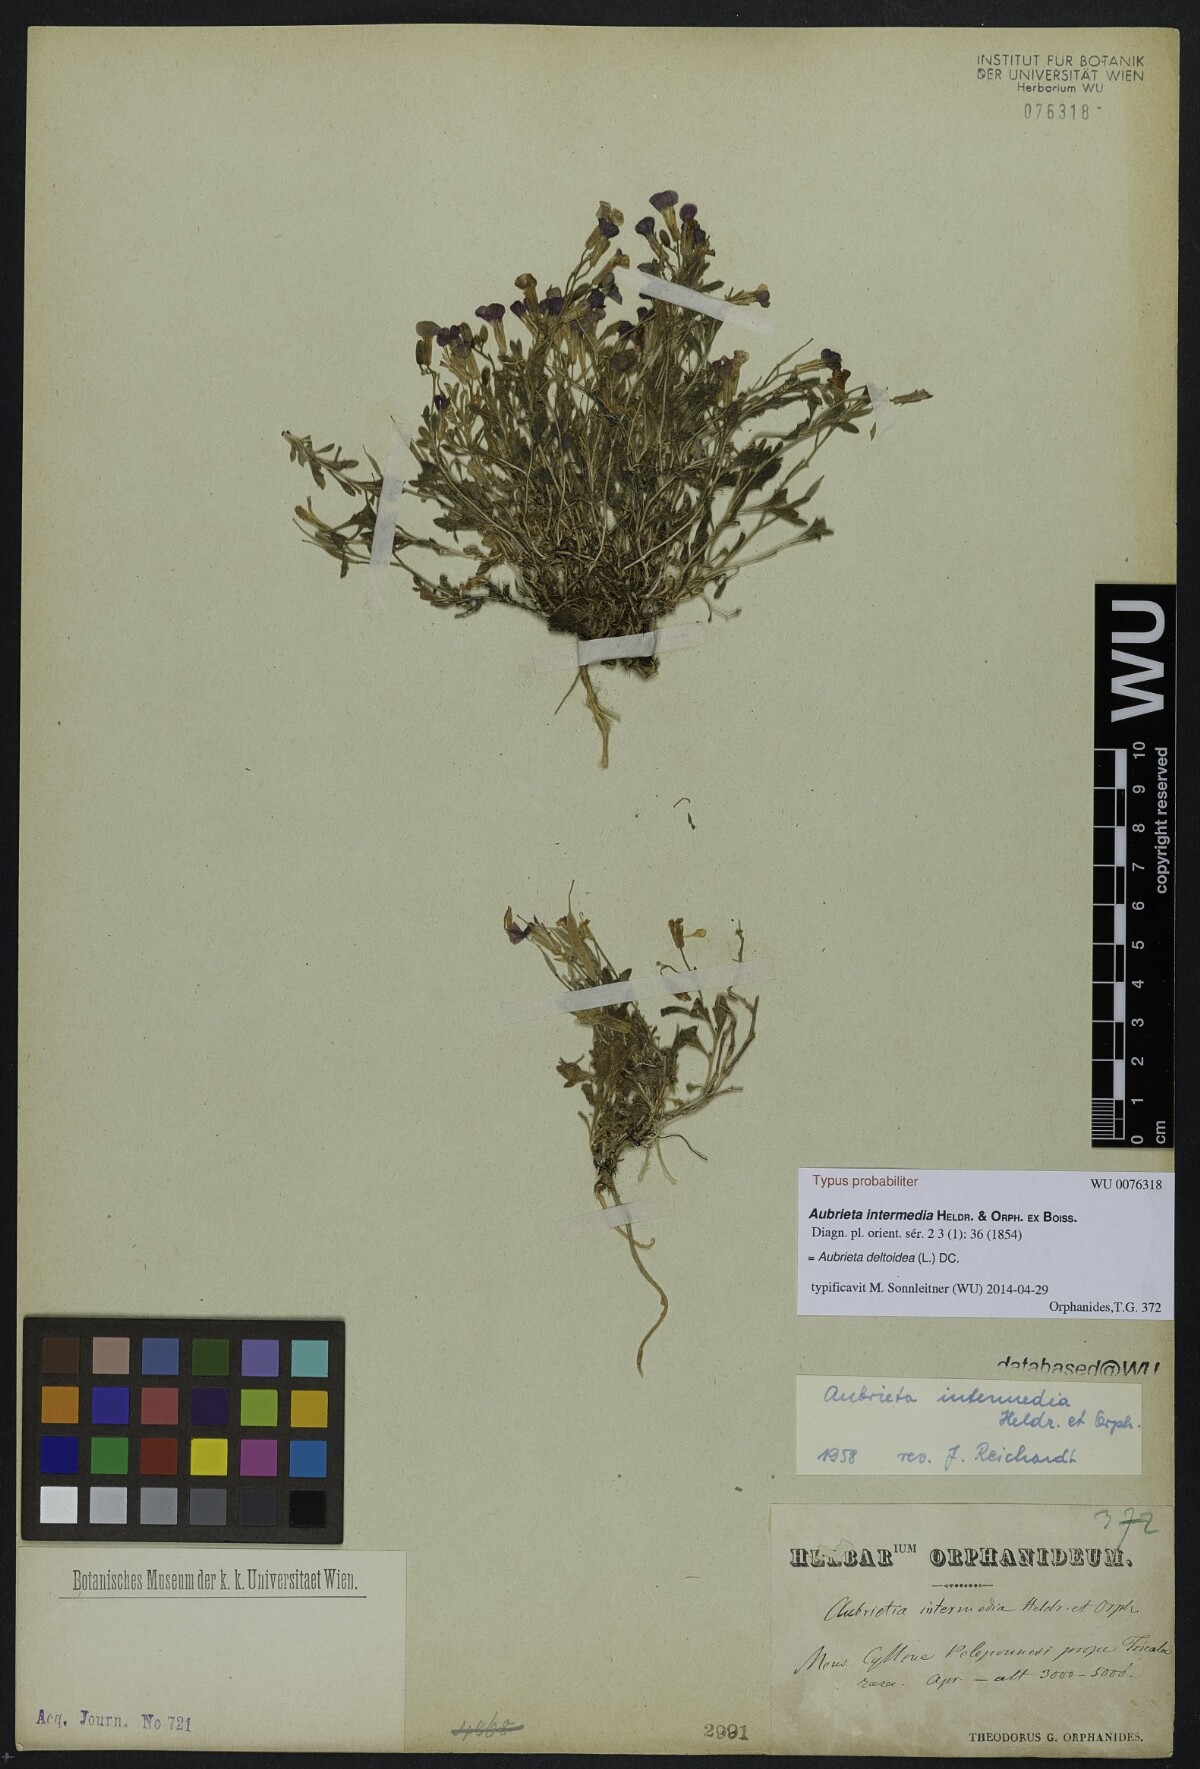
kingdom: Plantae
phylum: Tracheophyta
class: Magnoliopsida
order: Brassicales
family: Brassicaceae
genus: Aubrieta
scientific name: Aubrieta deltoidea
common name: Aubretia
